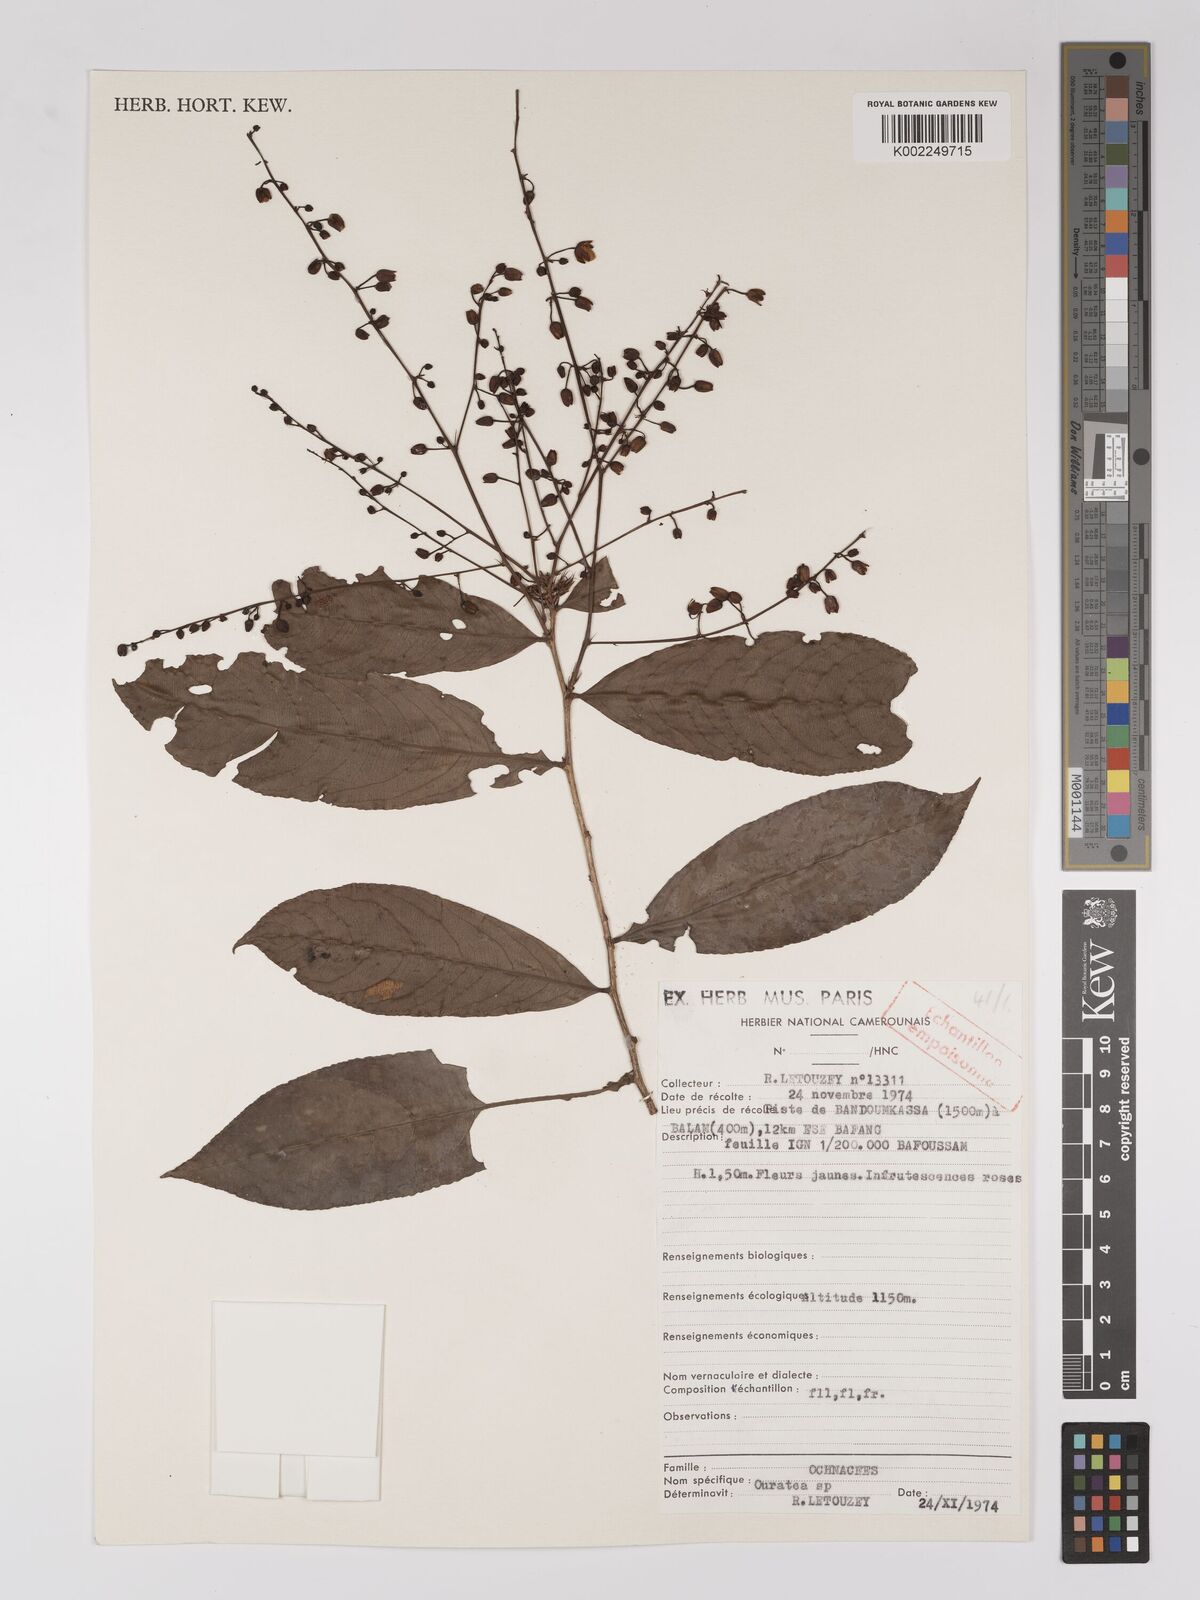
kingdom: Plantae
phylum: Tracheophyta
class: Magnoliopsida
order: Malpighiales
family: Ochnaceae
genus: Campylospermum
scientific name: Campylospermum
